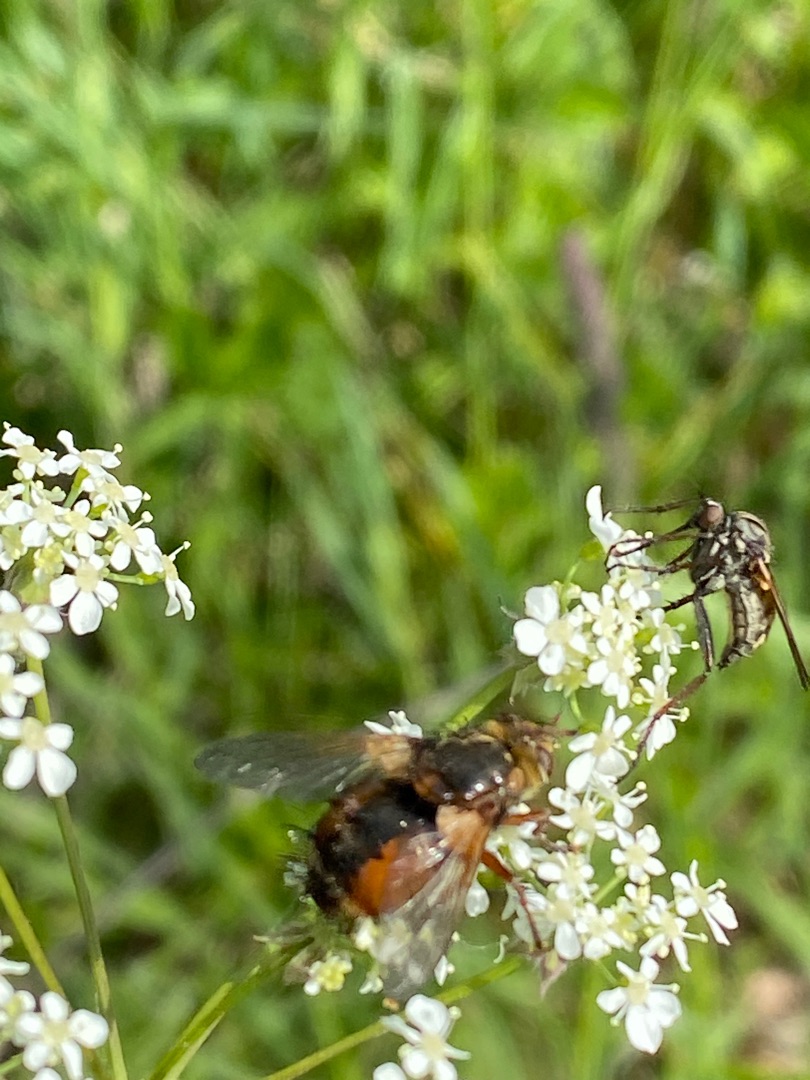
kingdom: Animalia
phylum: Arthropoda
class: Insecta
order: Diptera
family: Tachinidae
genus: Tachina
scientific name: Tachina fera
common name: Mellemfluen oskar
